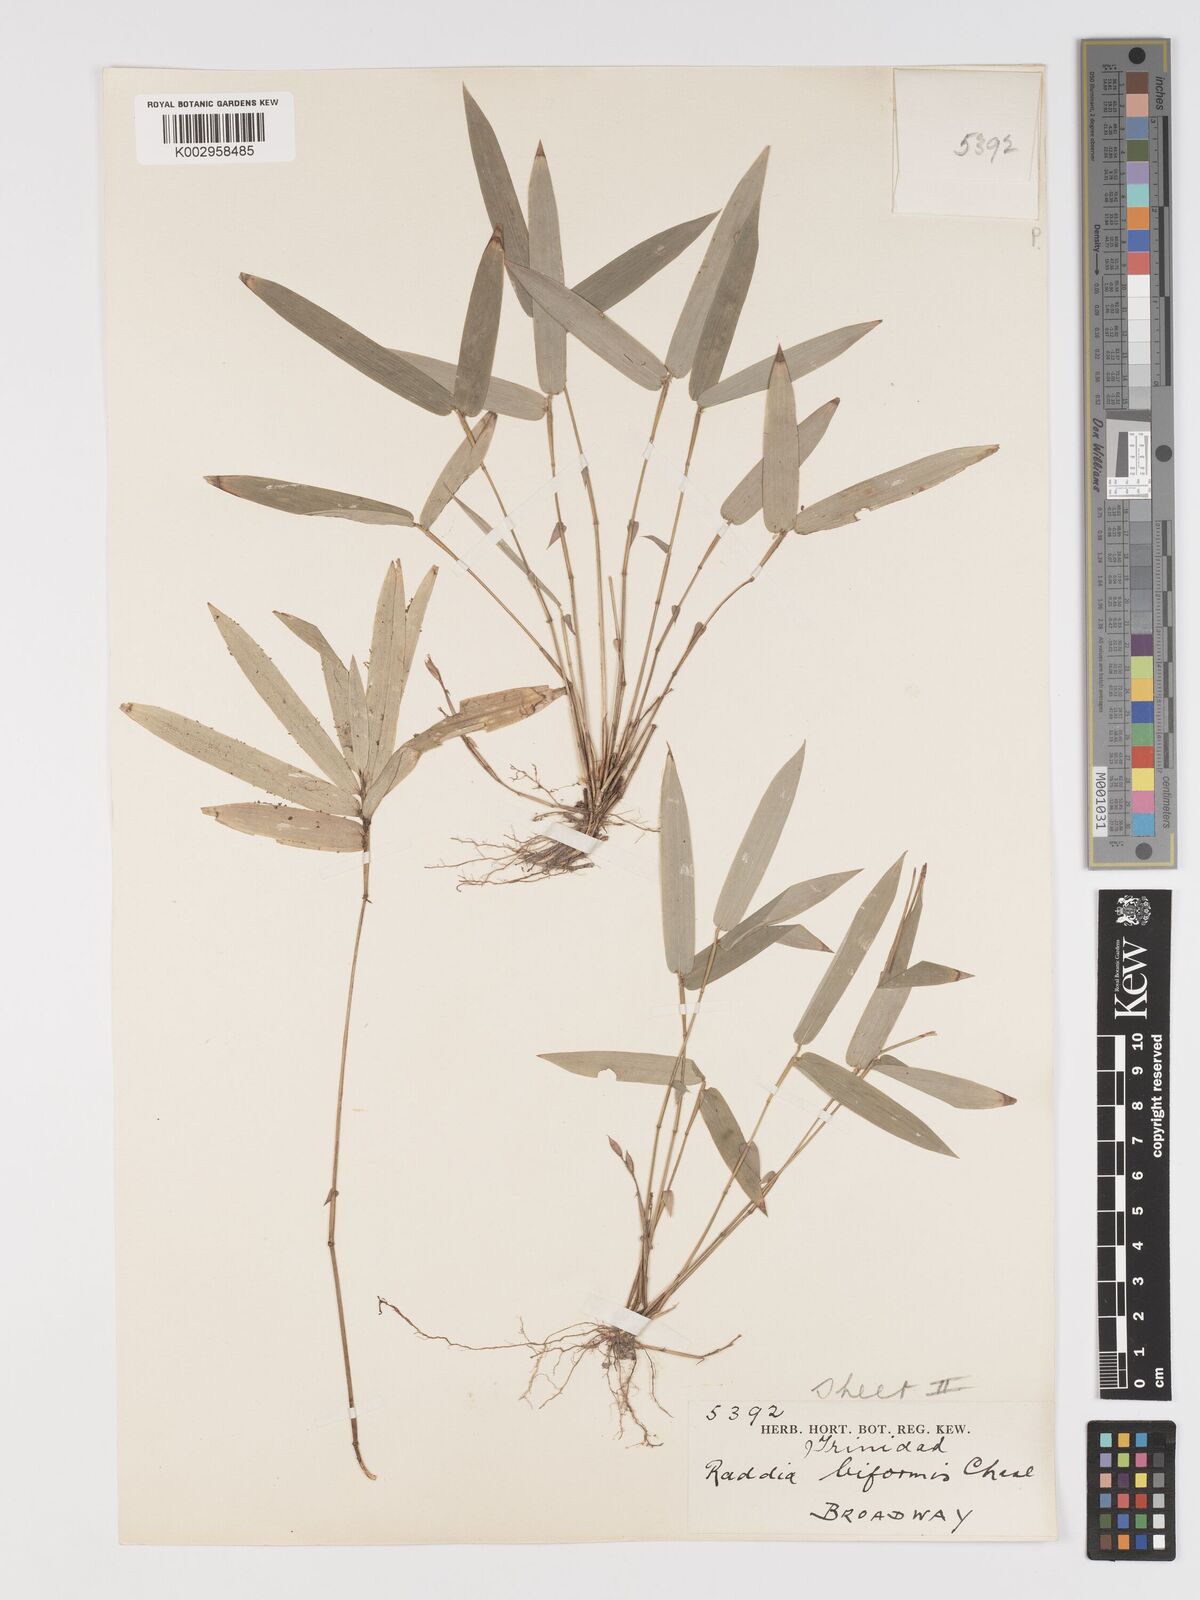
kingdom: Plantae
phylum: Tracheophyta
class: Liliopsida
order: Poales
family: Poaceae
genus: Piresia
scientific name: Piresia sympodica
